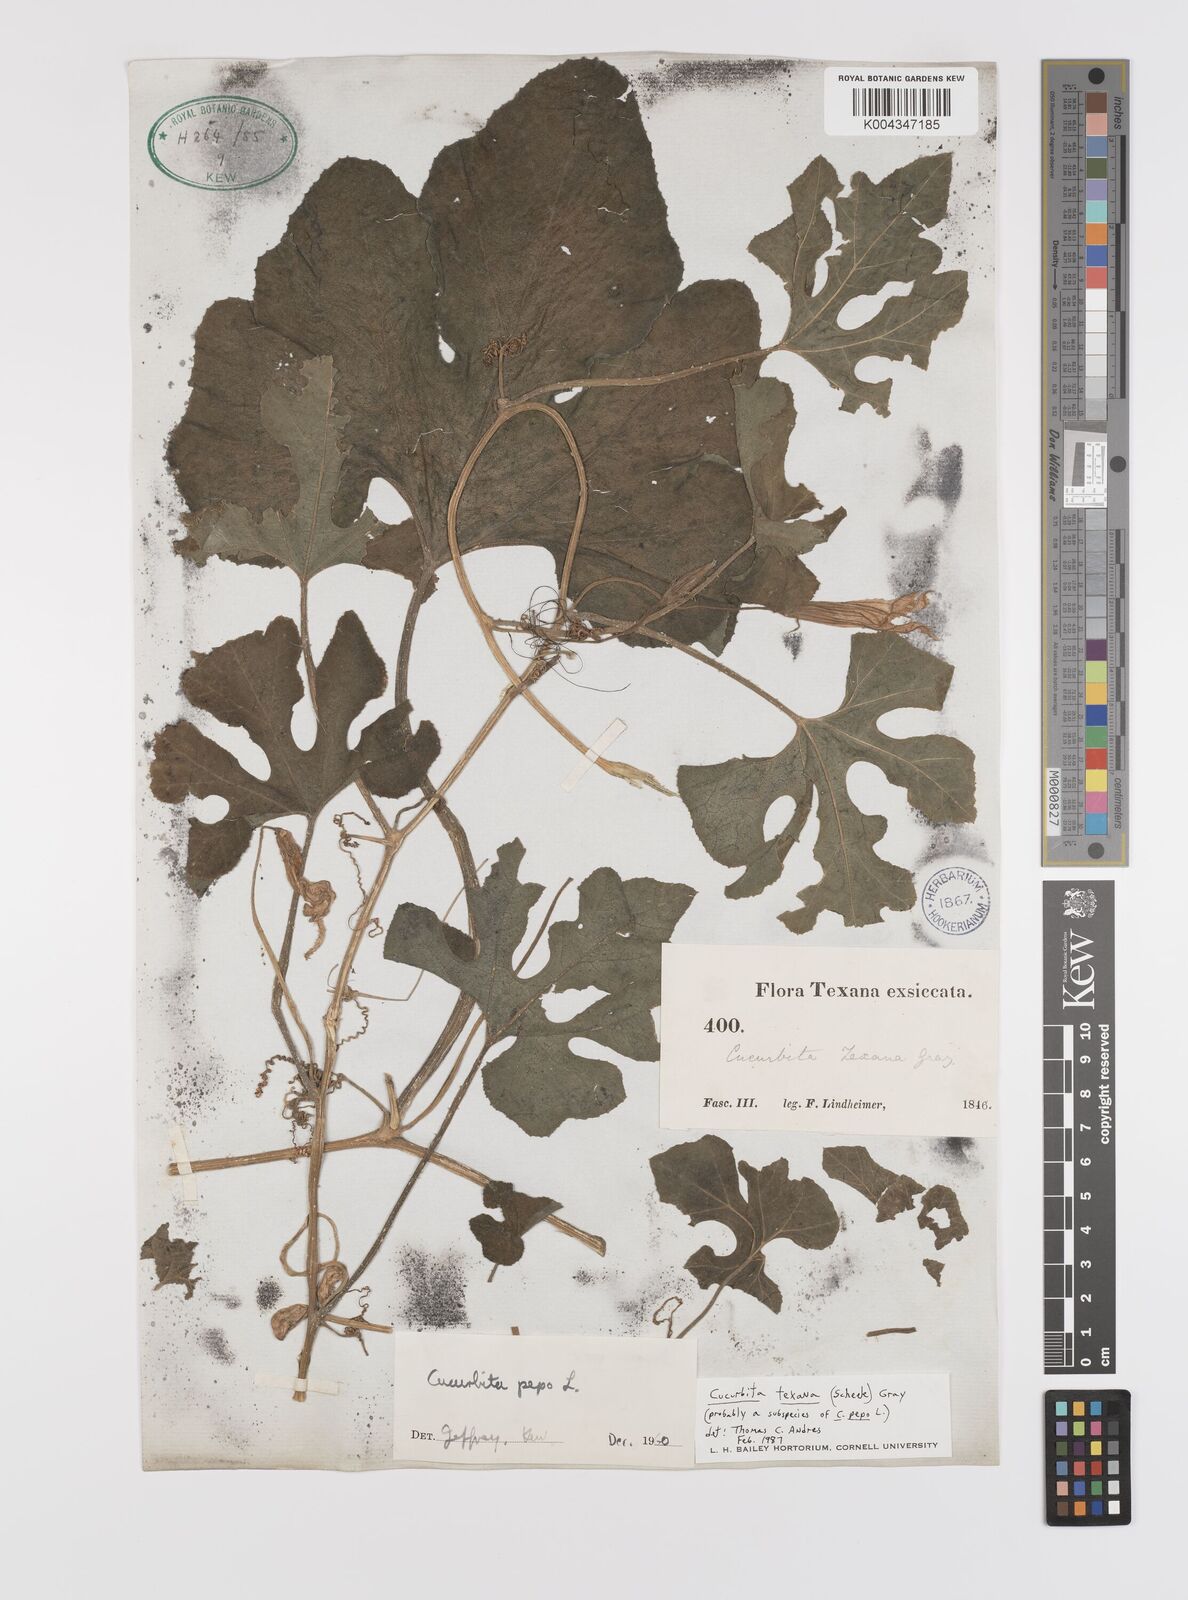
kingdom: Plantae
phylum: Tracheophyta
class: Magnoliopsida
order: Cucurbitales
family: Cucurbitaceae
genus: Cucurbita
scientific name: Cucurbita palmata
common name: Coyote-melon
